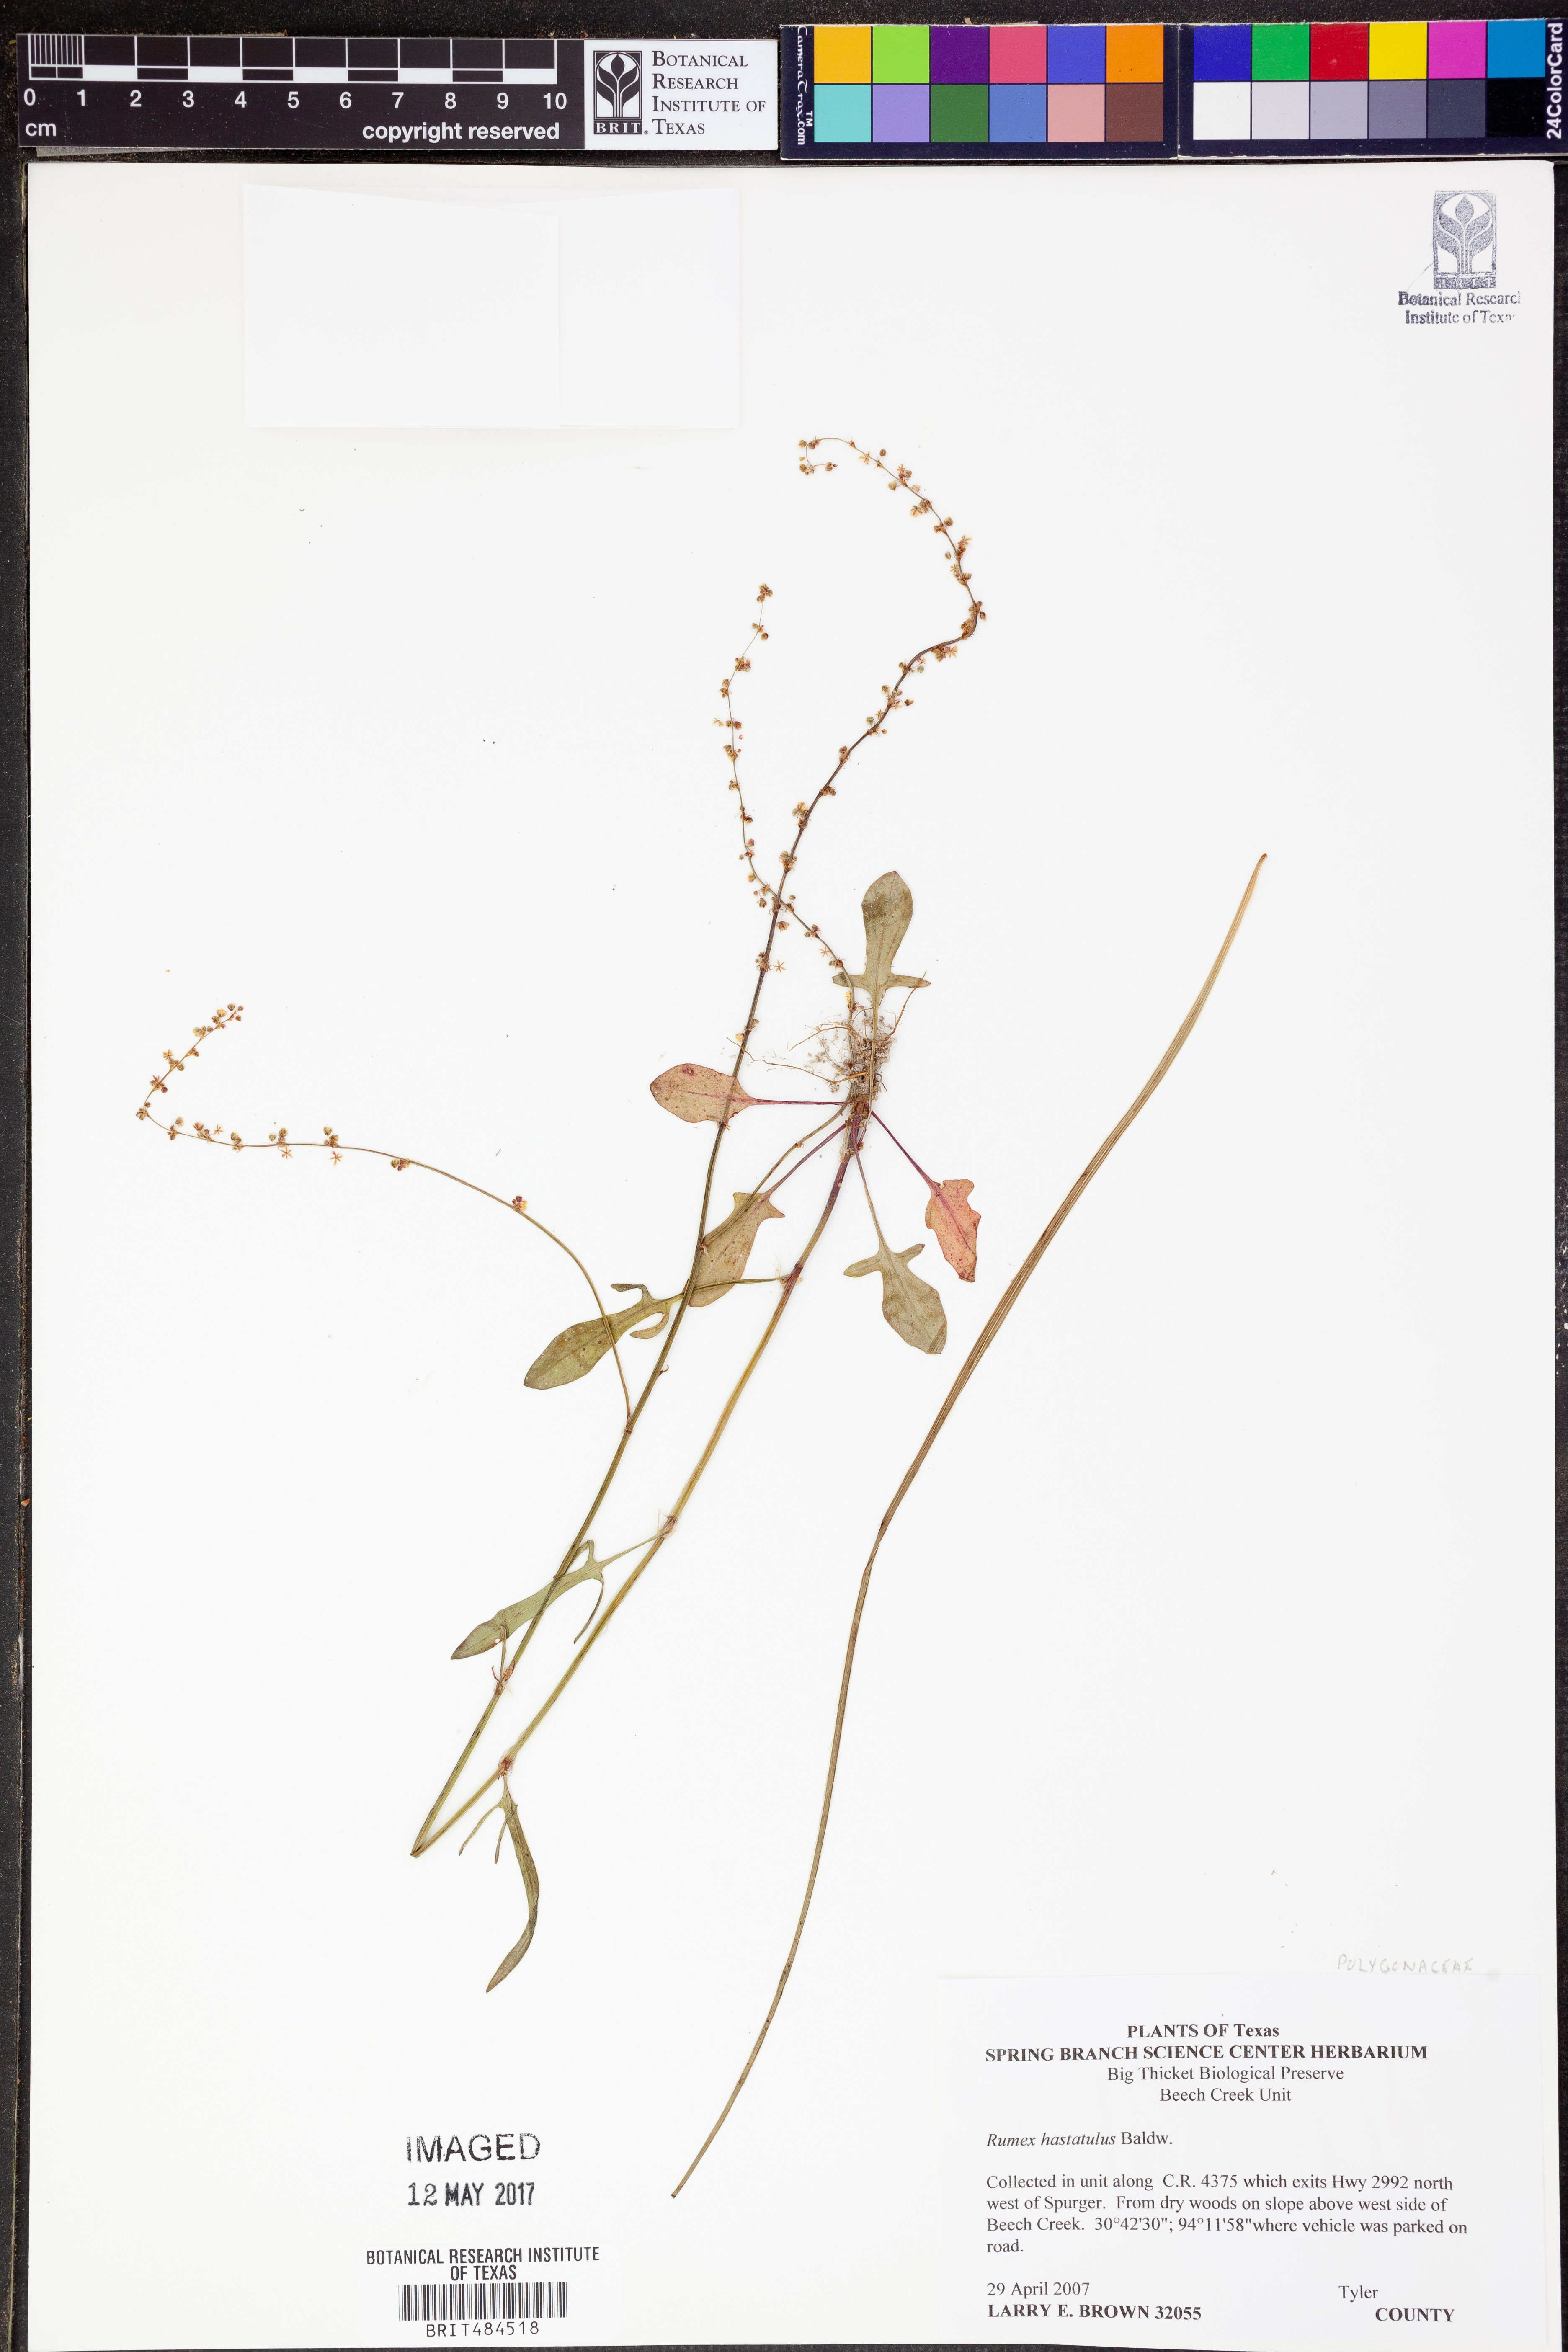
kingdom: Plantae
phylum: Tracheophyta
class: Magnoliopsida
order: Caryophyllales
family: Polygonaceae
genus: Rumex
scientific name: Rumex hastatulus
